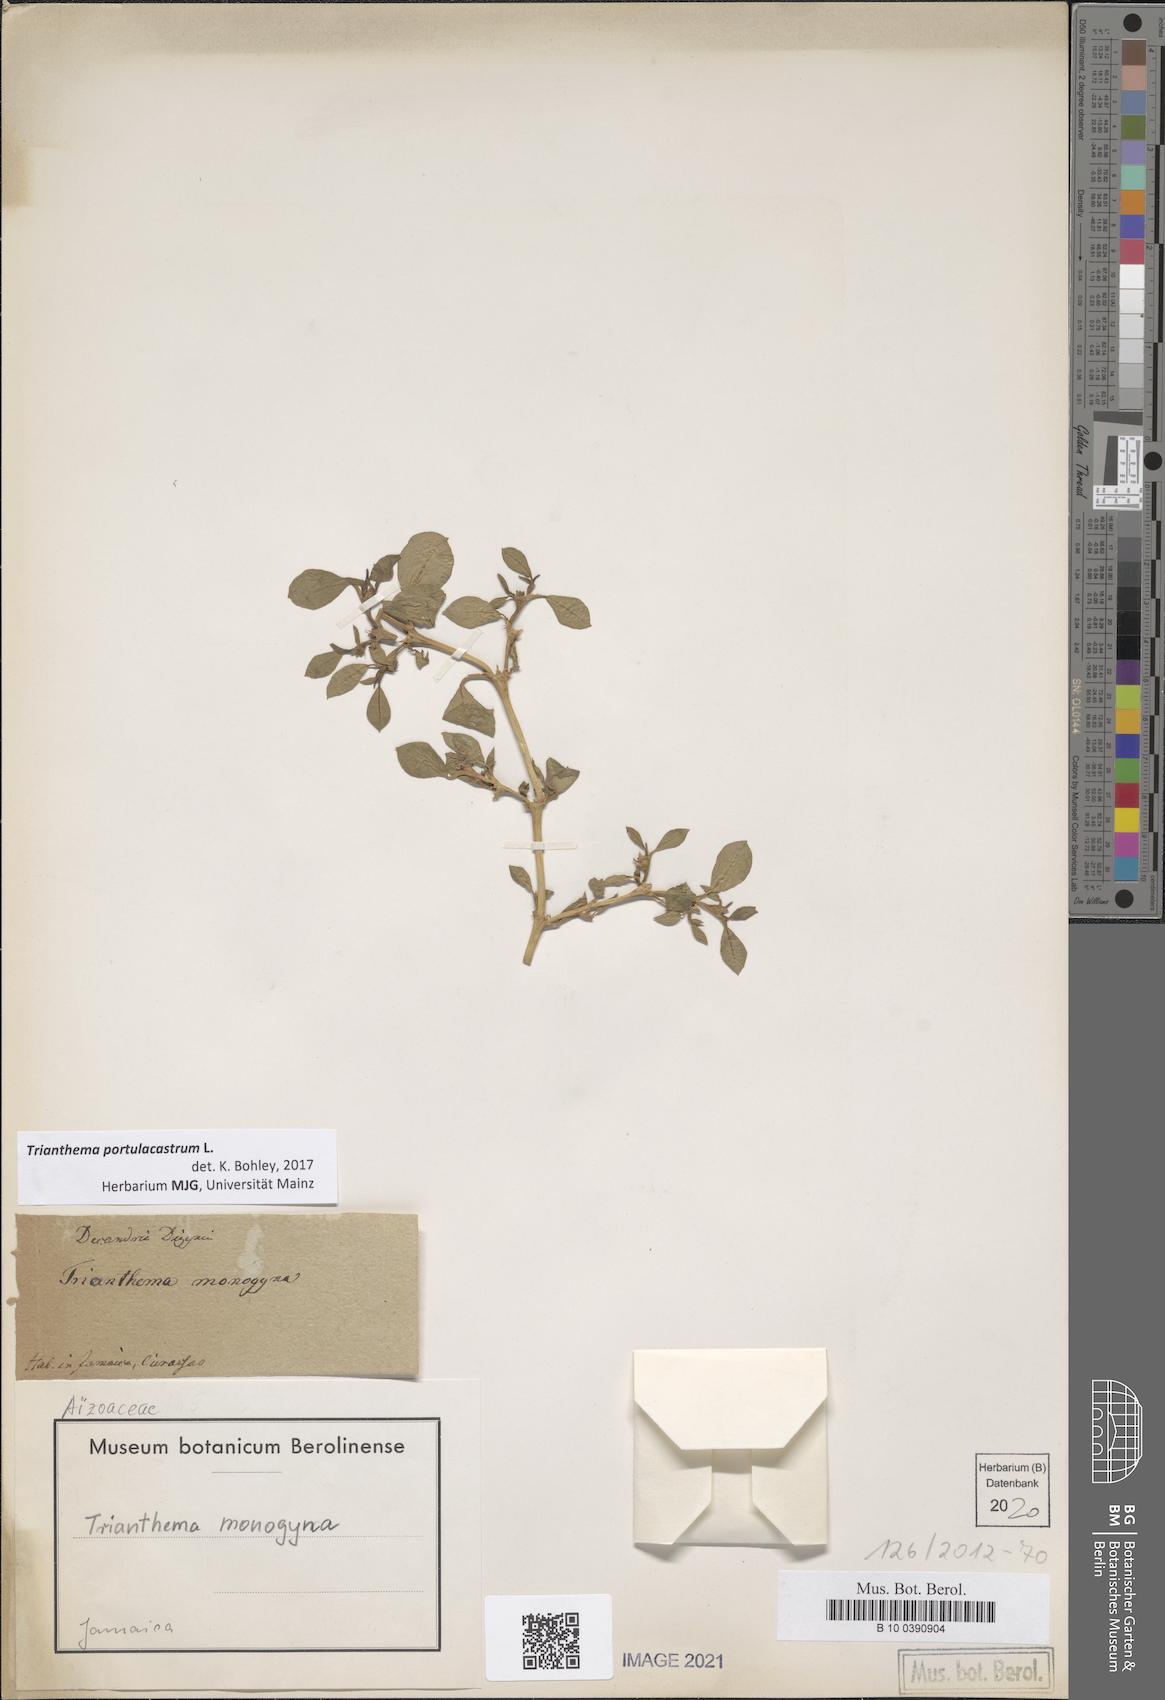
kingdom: Plantae
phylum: Tracheophyta
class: Magnoliopsida
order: Caryophyllales
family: Aizoaceae
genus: Trianthema
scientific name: Trianthema portulacastrum
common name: Desert horsepurslane
